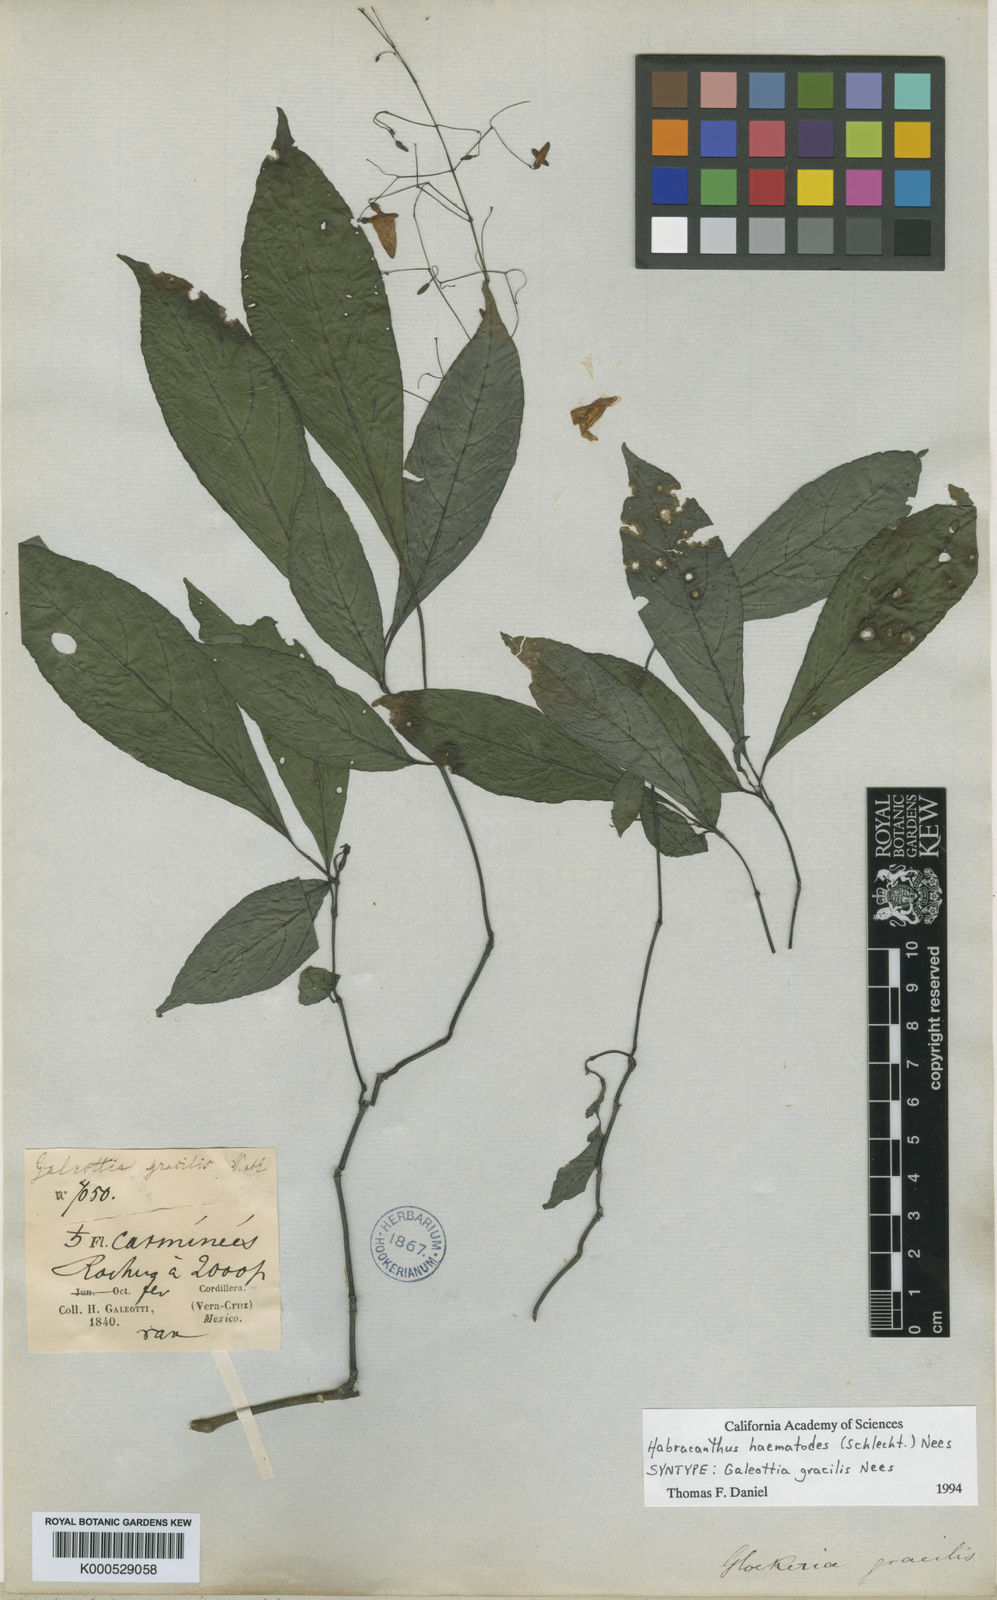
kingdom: Plantae
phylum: Tracheophyta
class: Magnoliopsida
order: Lamiales
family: Acanthaceae
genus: Stenostephanus
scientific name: Stenostephanus gracilis
